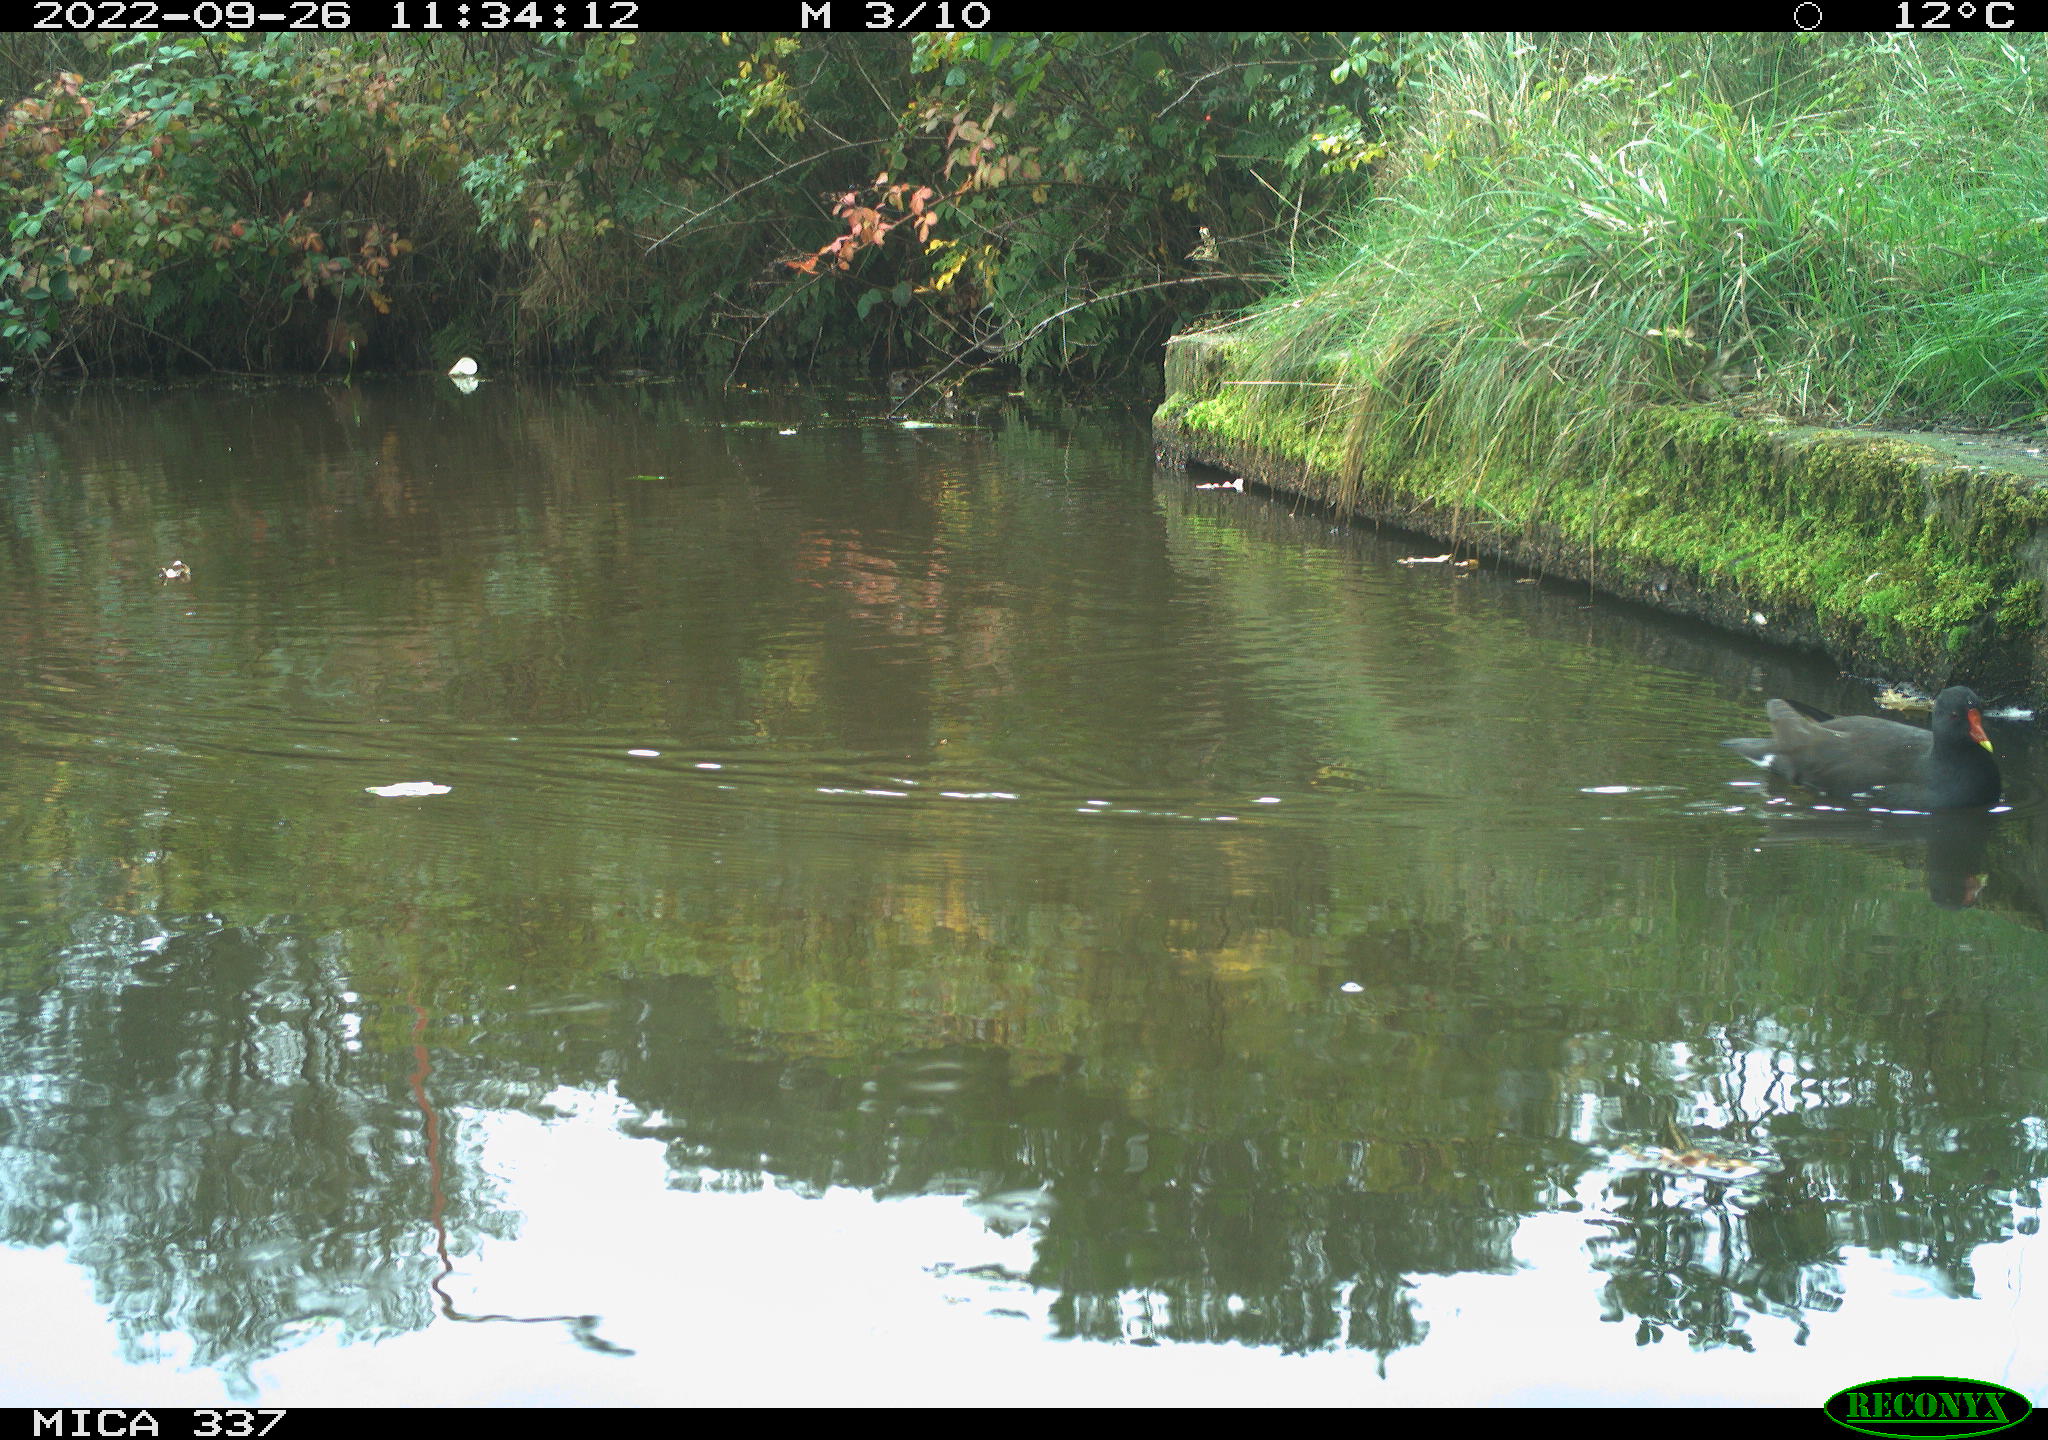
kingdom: Animalia
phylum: Chordata
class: Aves
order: Gruiformes
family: Rallidae
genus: Gallinula
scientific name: Gallinula chloropus
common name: Common moorhen
